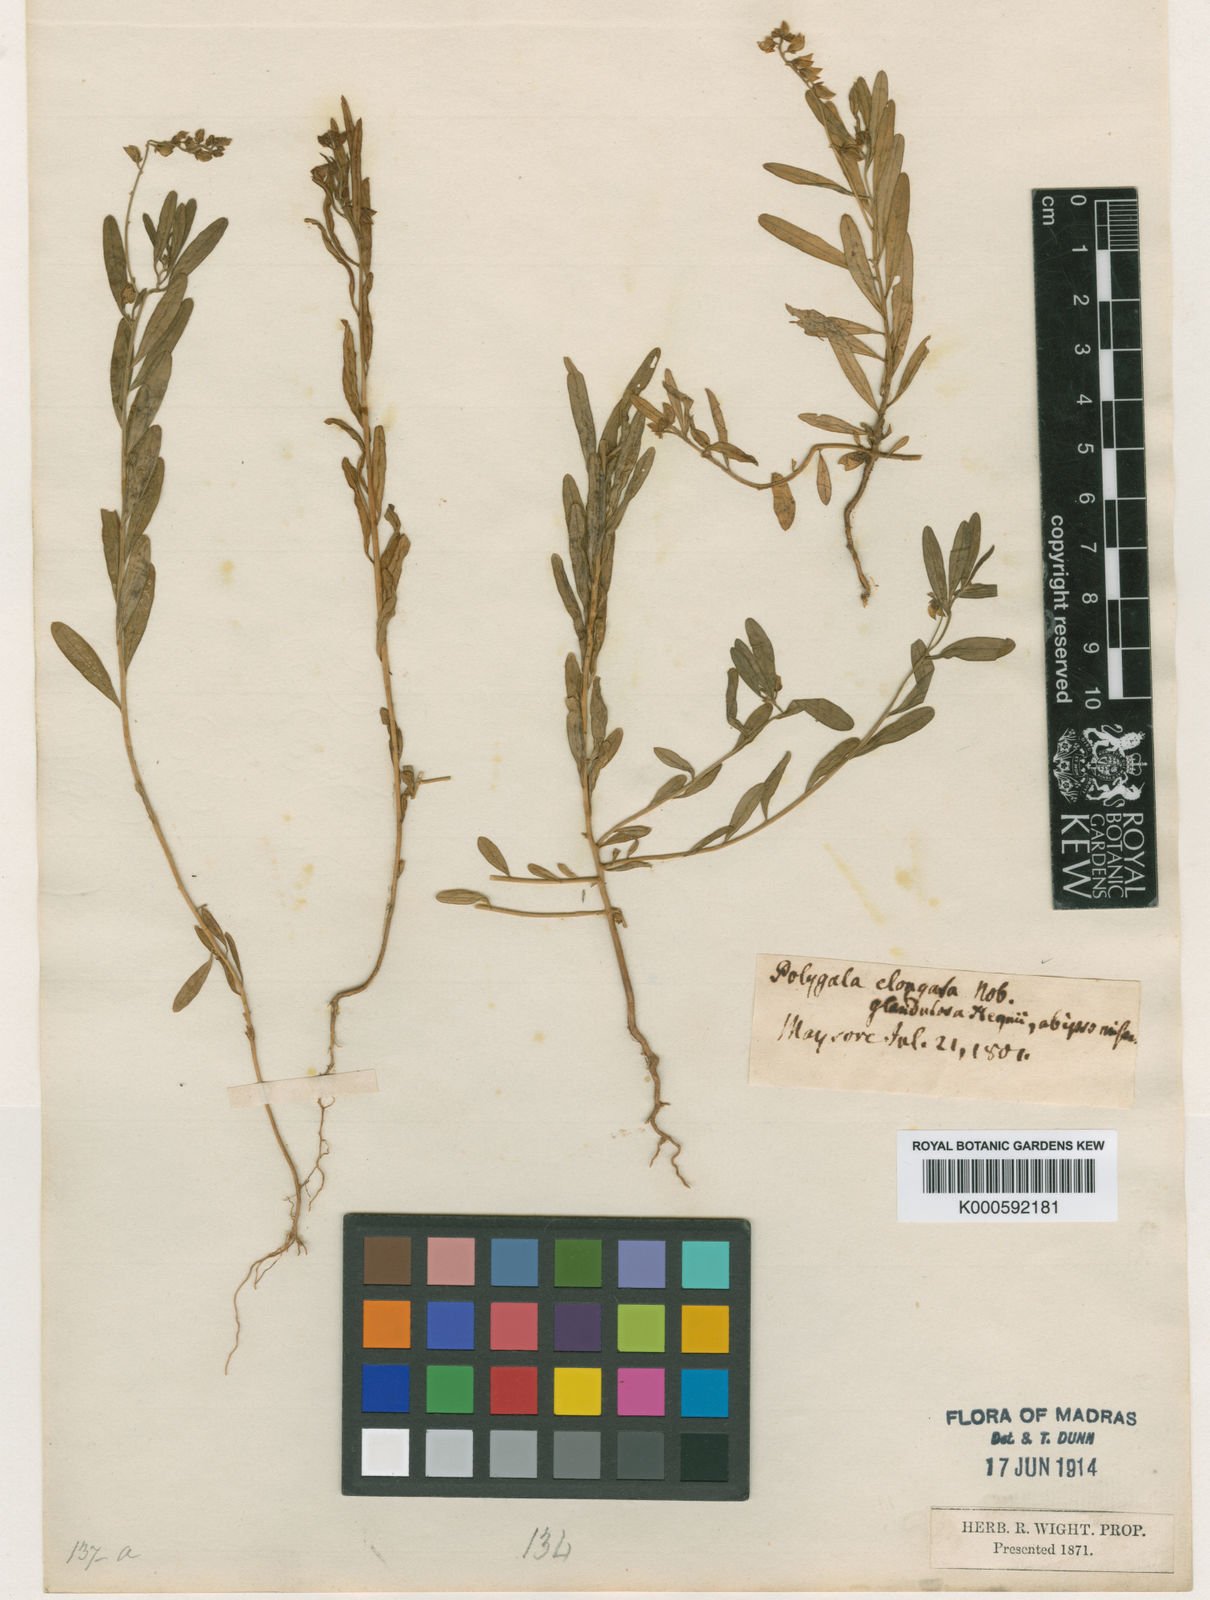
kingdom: Plantae
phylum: Tracheophyta
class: Magnoliopsida
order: Fabales
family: Polygalaceae
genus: Polygala
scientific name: Polygala wightiana
